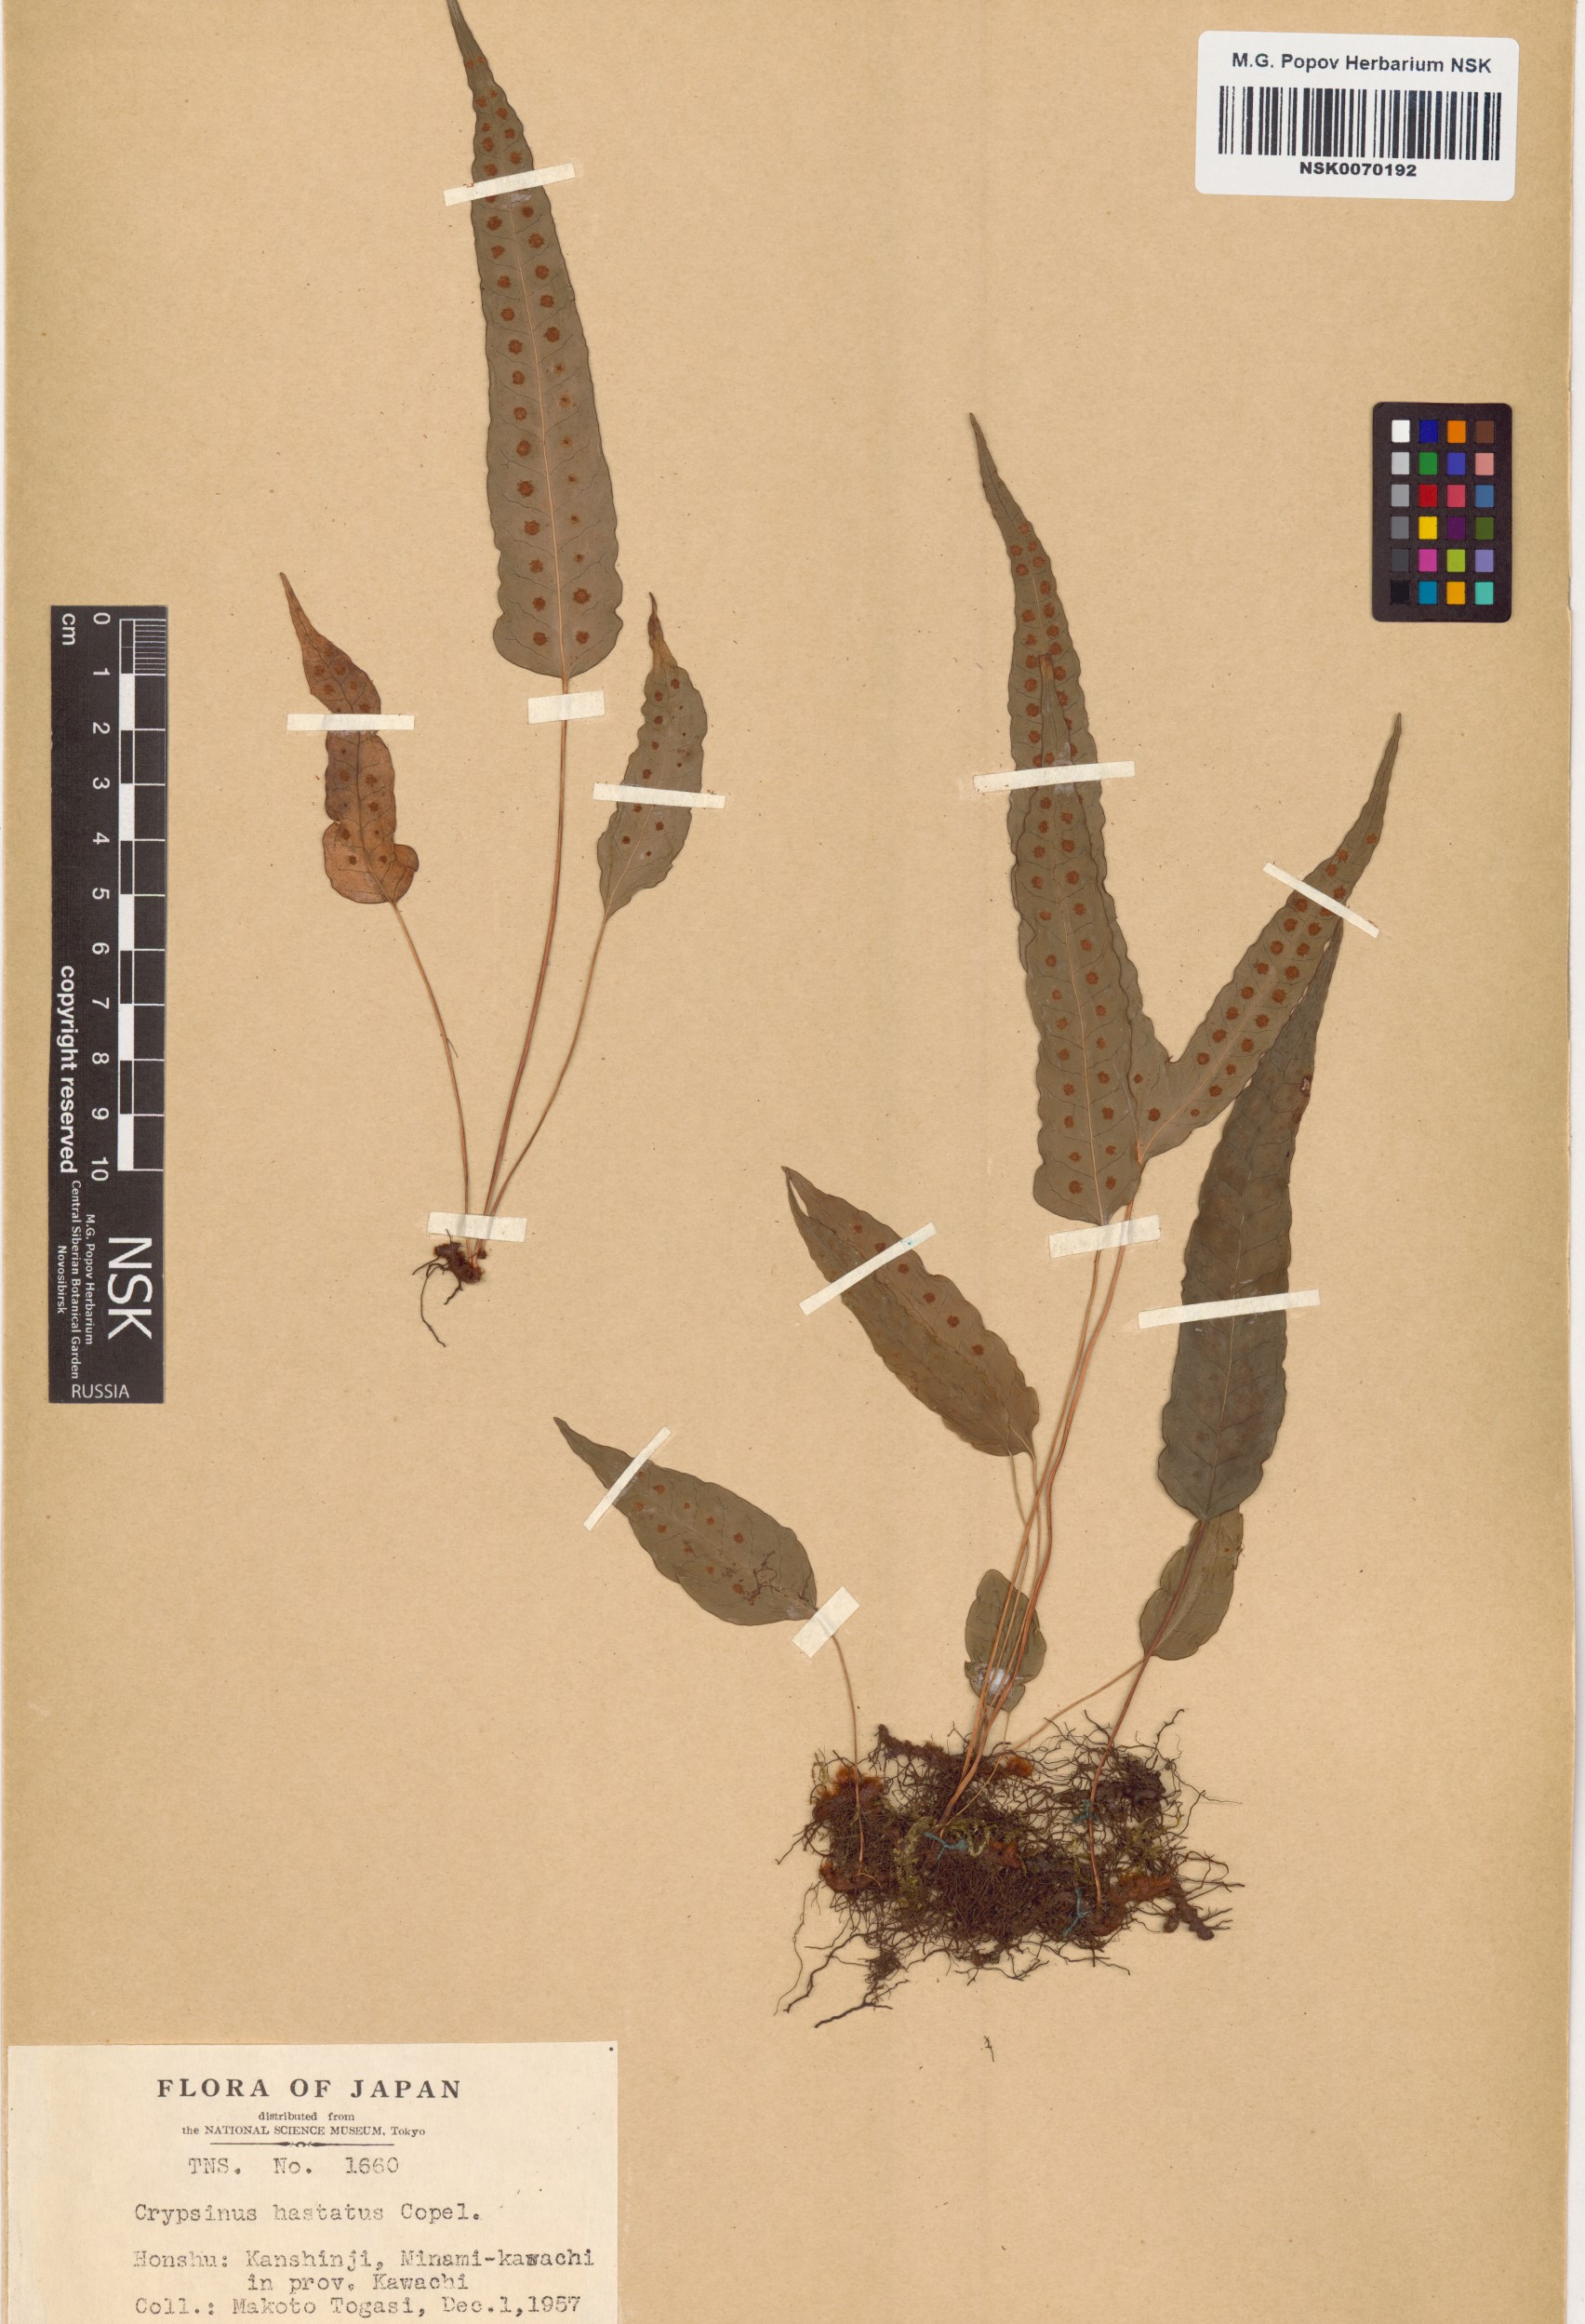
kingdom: Plantae
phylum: Tracheophyta
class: Polypodiopsida
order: Polypodiales
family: Polypodiaceae
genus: Selliguea
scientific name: Selliguea hastata
